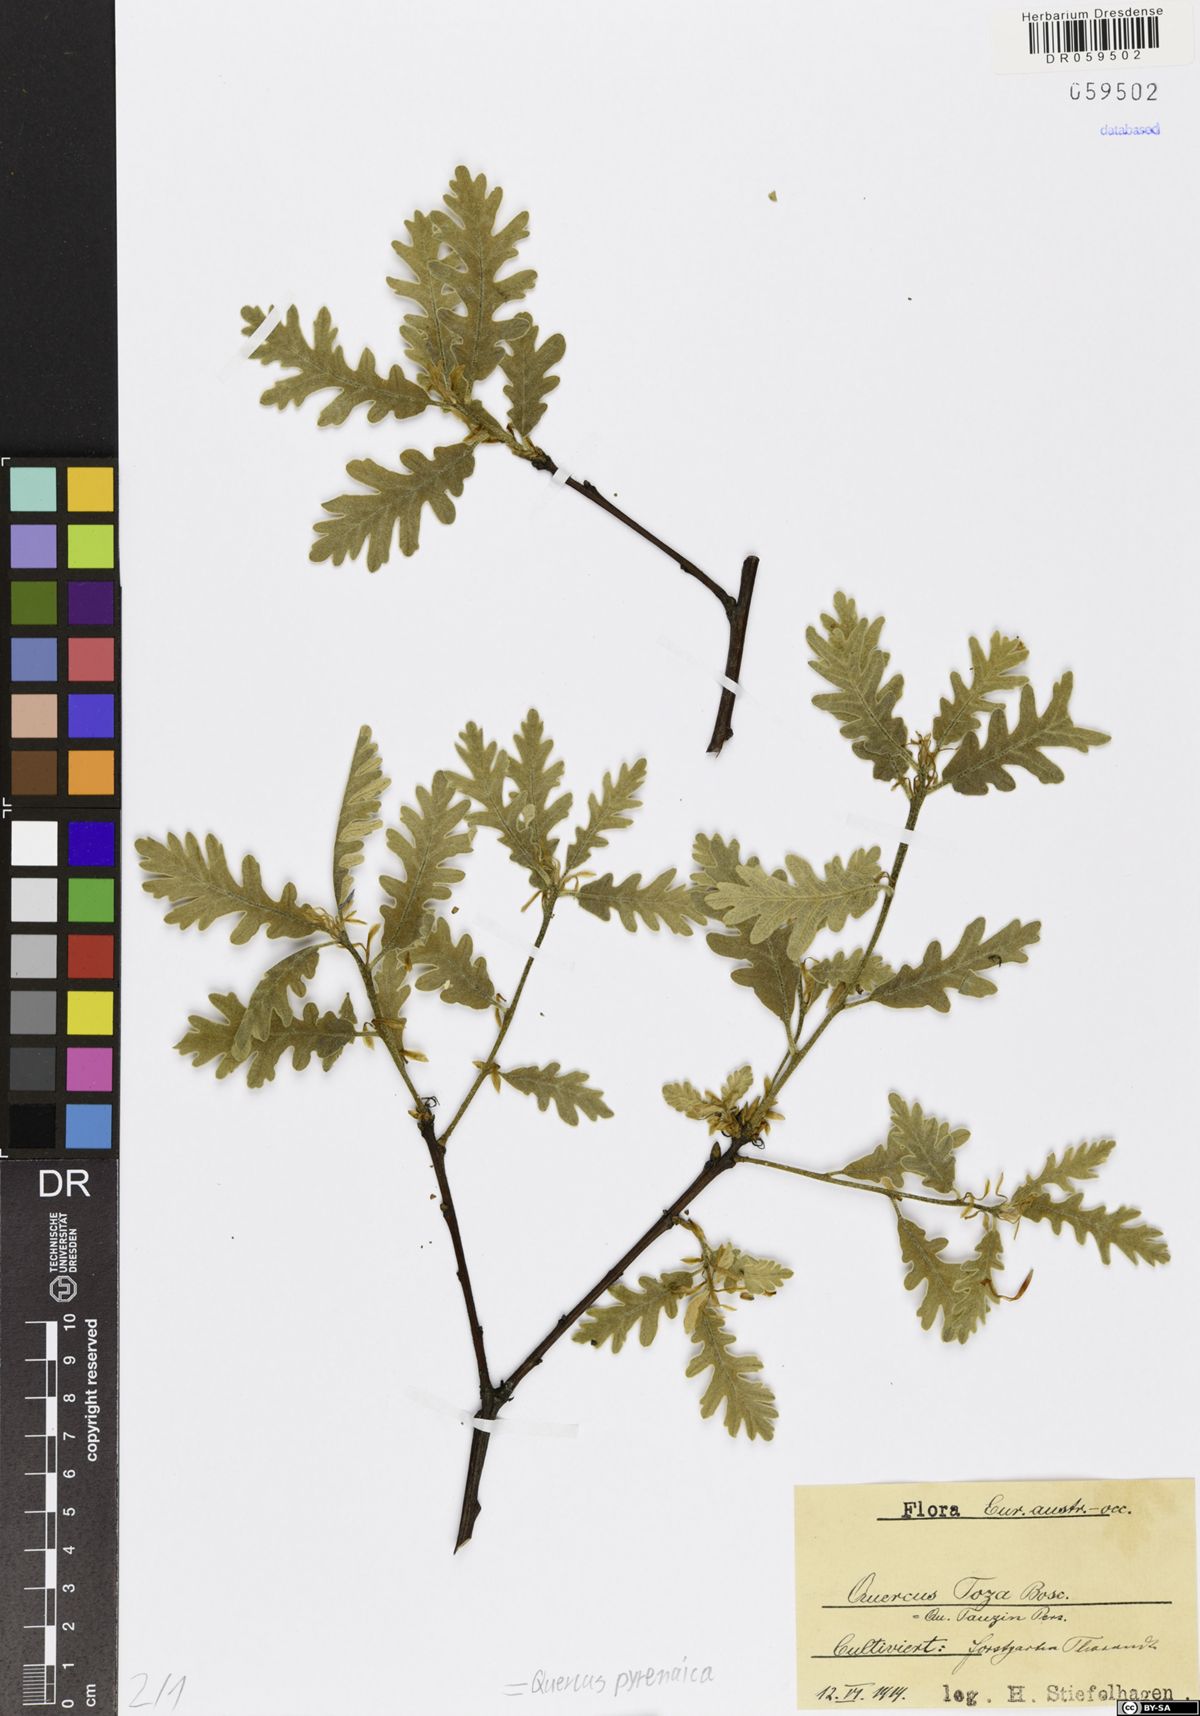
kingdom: Plantae
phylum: Tracheophyta
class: Magnoliopsida
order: Fagales
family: Fagaceae
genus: Quercus
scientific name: Quercus pyrenaica
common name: Pyrenean oak
